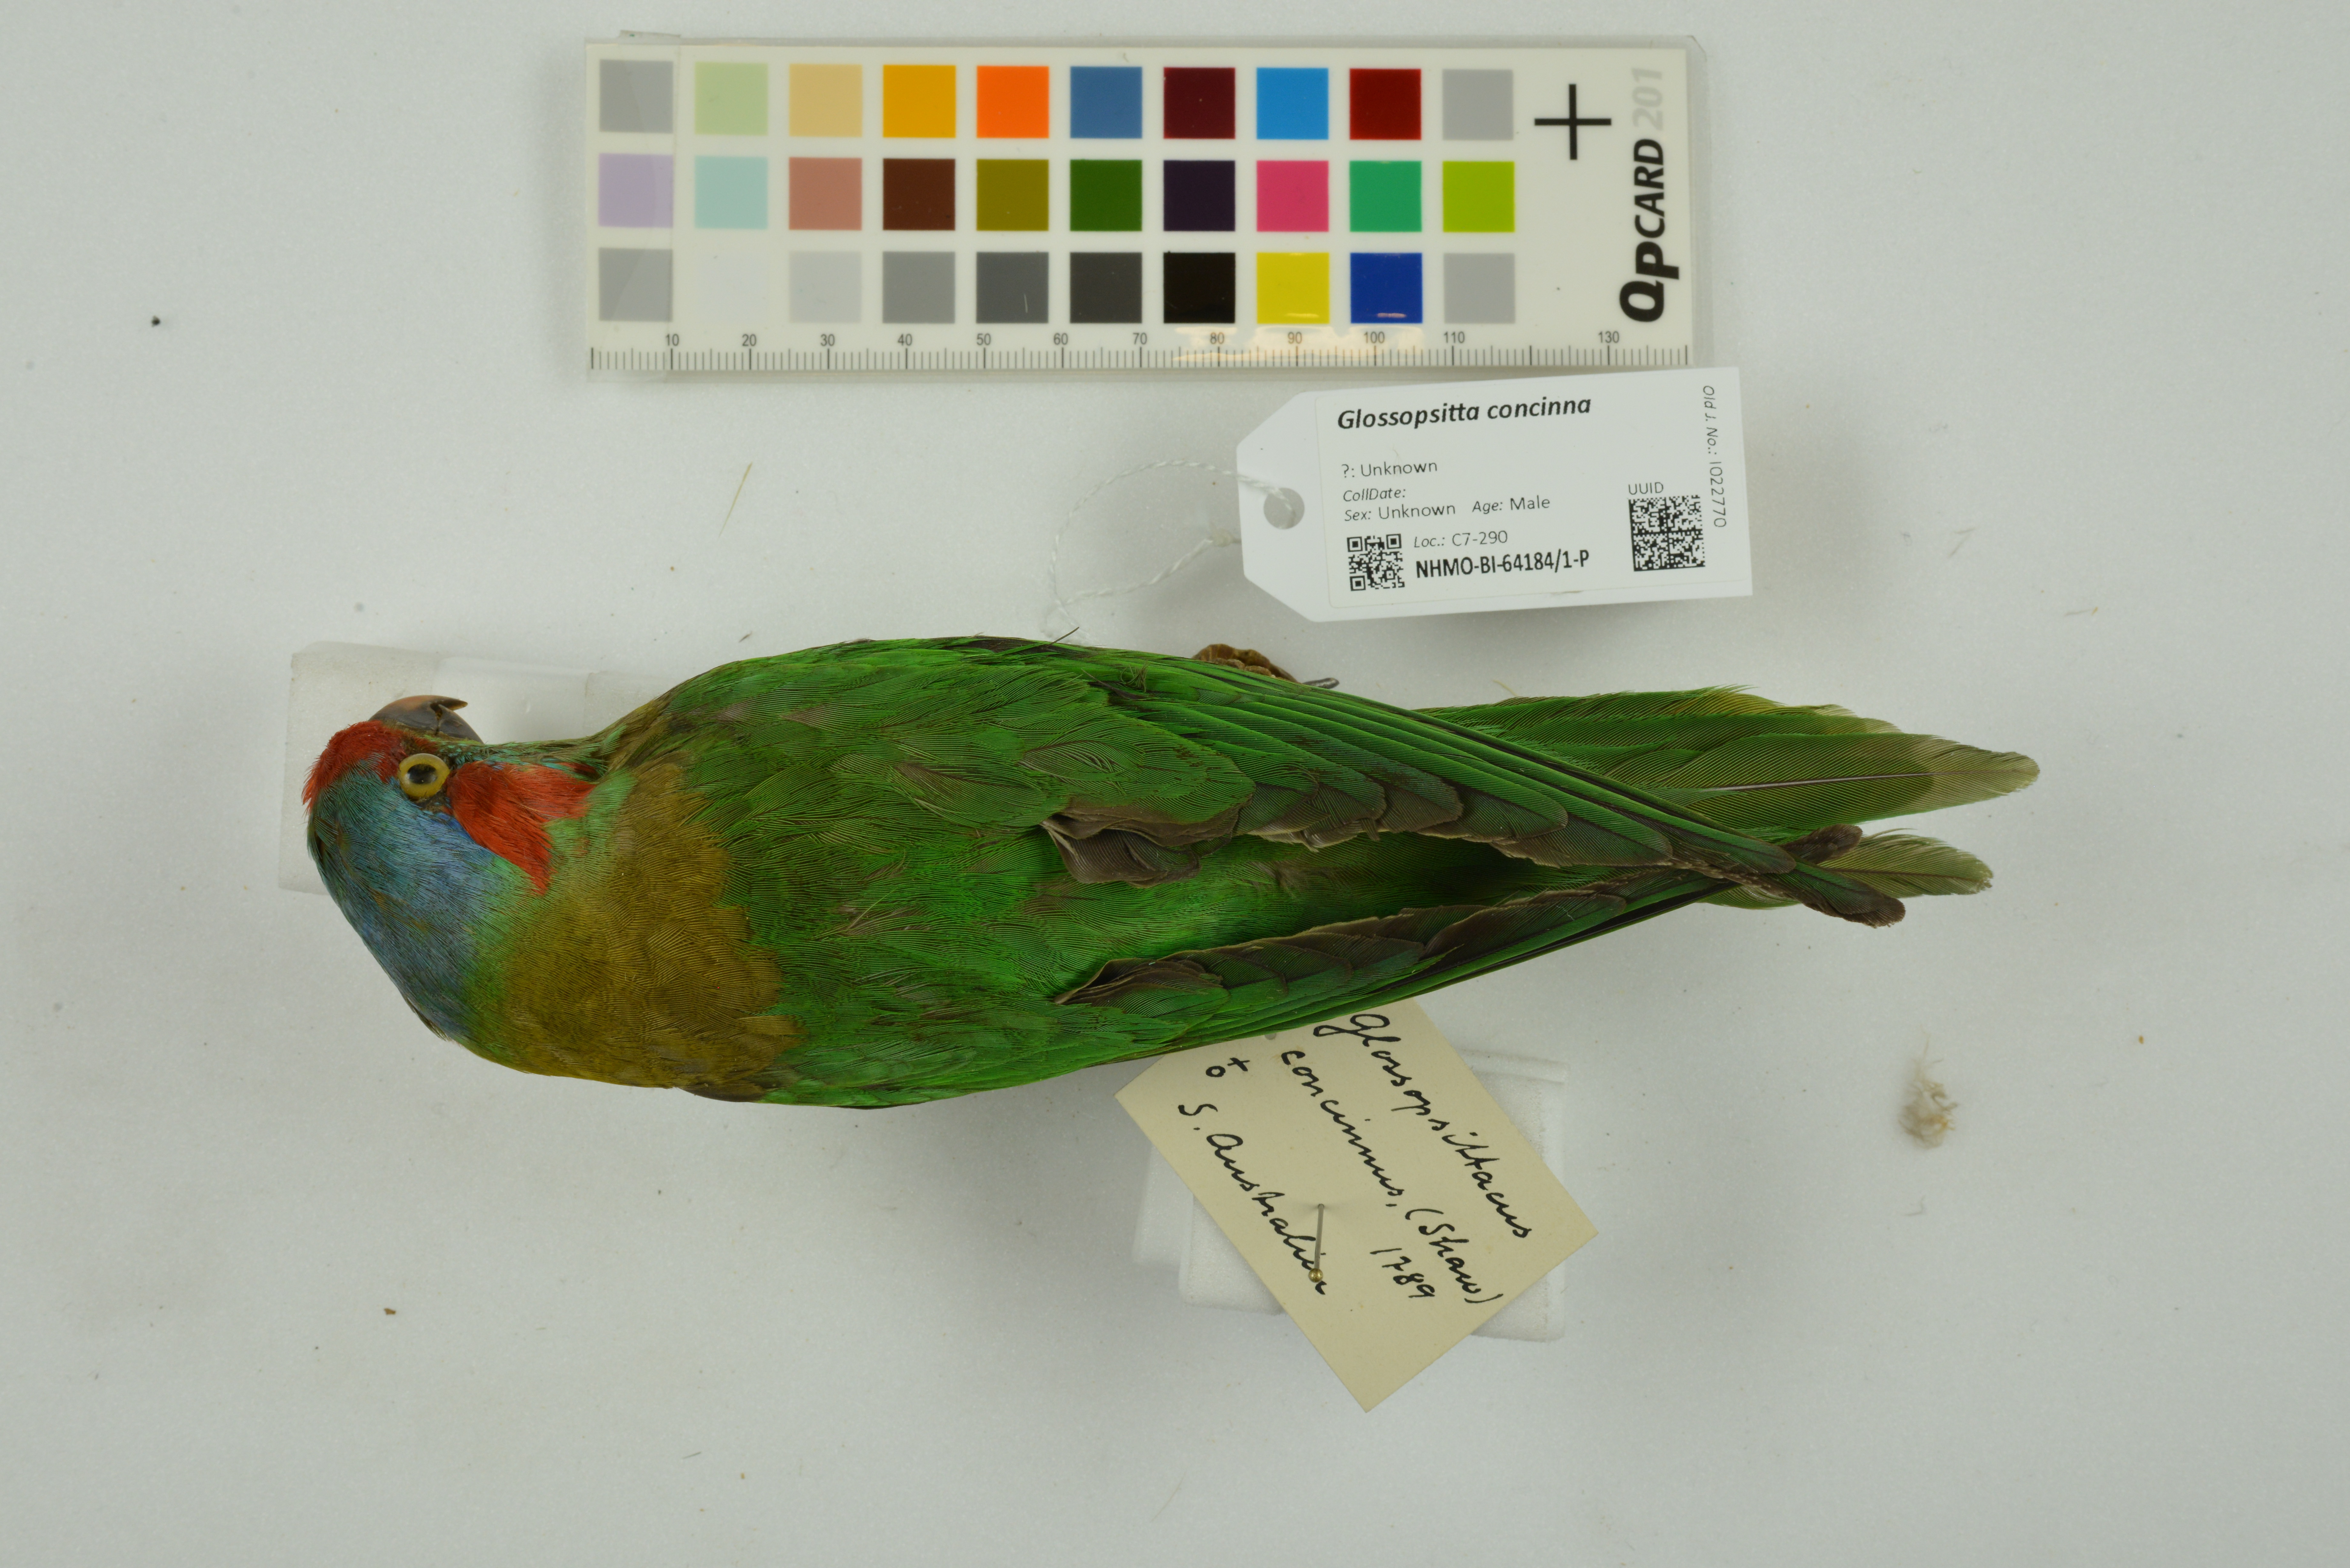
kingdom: Animalia
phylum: Chordata
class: Aves
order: Psittaciformes
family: Psittacidae
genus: Glossopsitta
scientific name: Glossopsitta concinna
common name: Musk lorikeet
